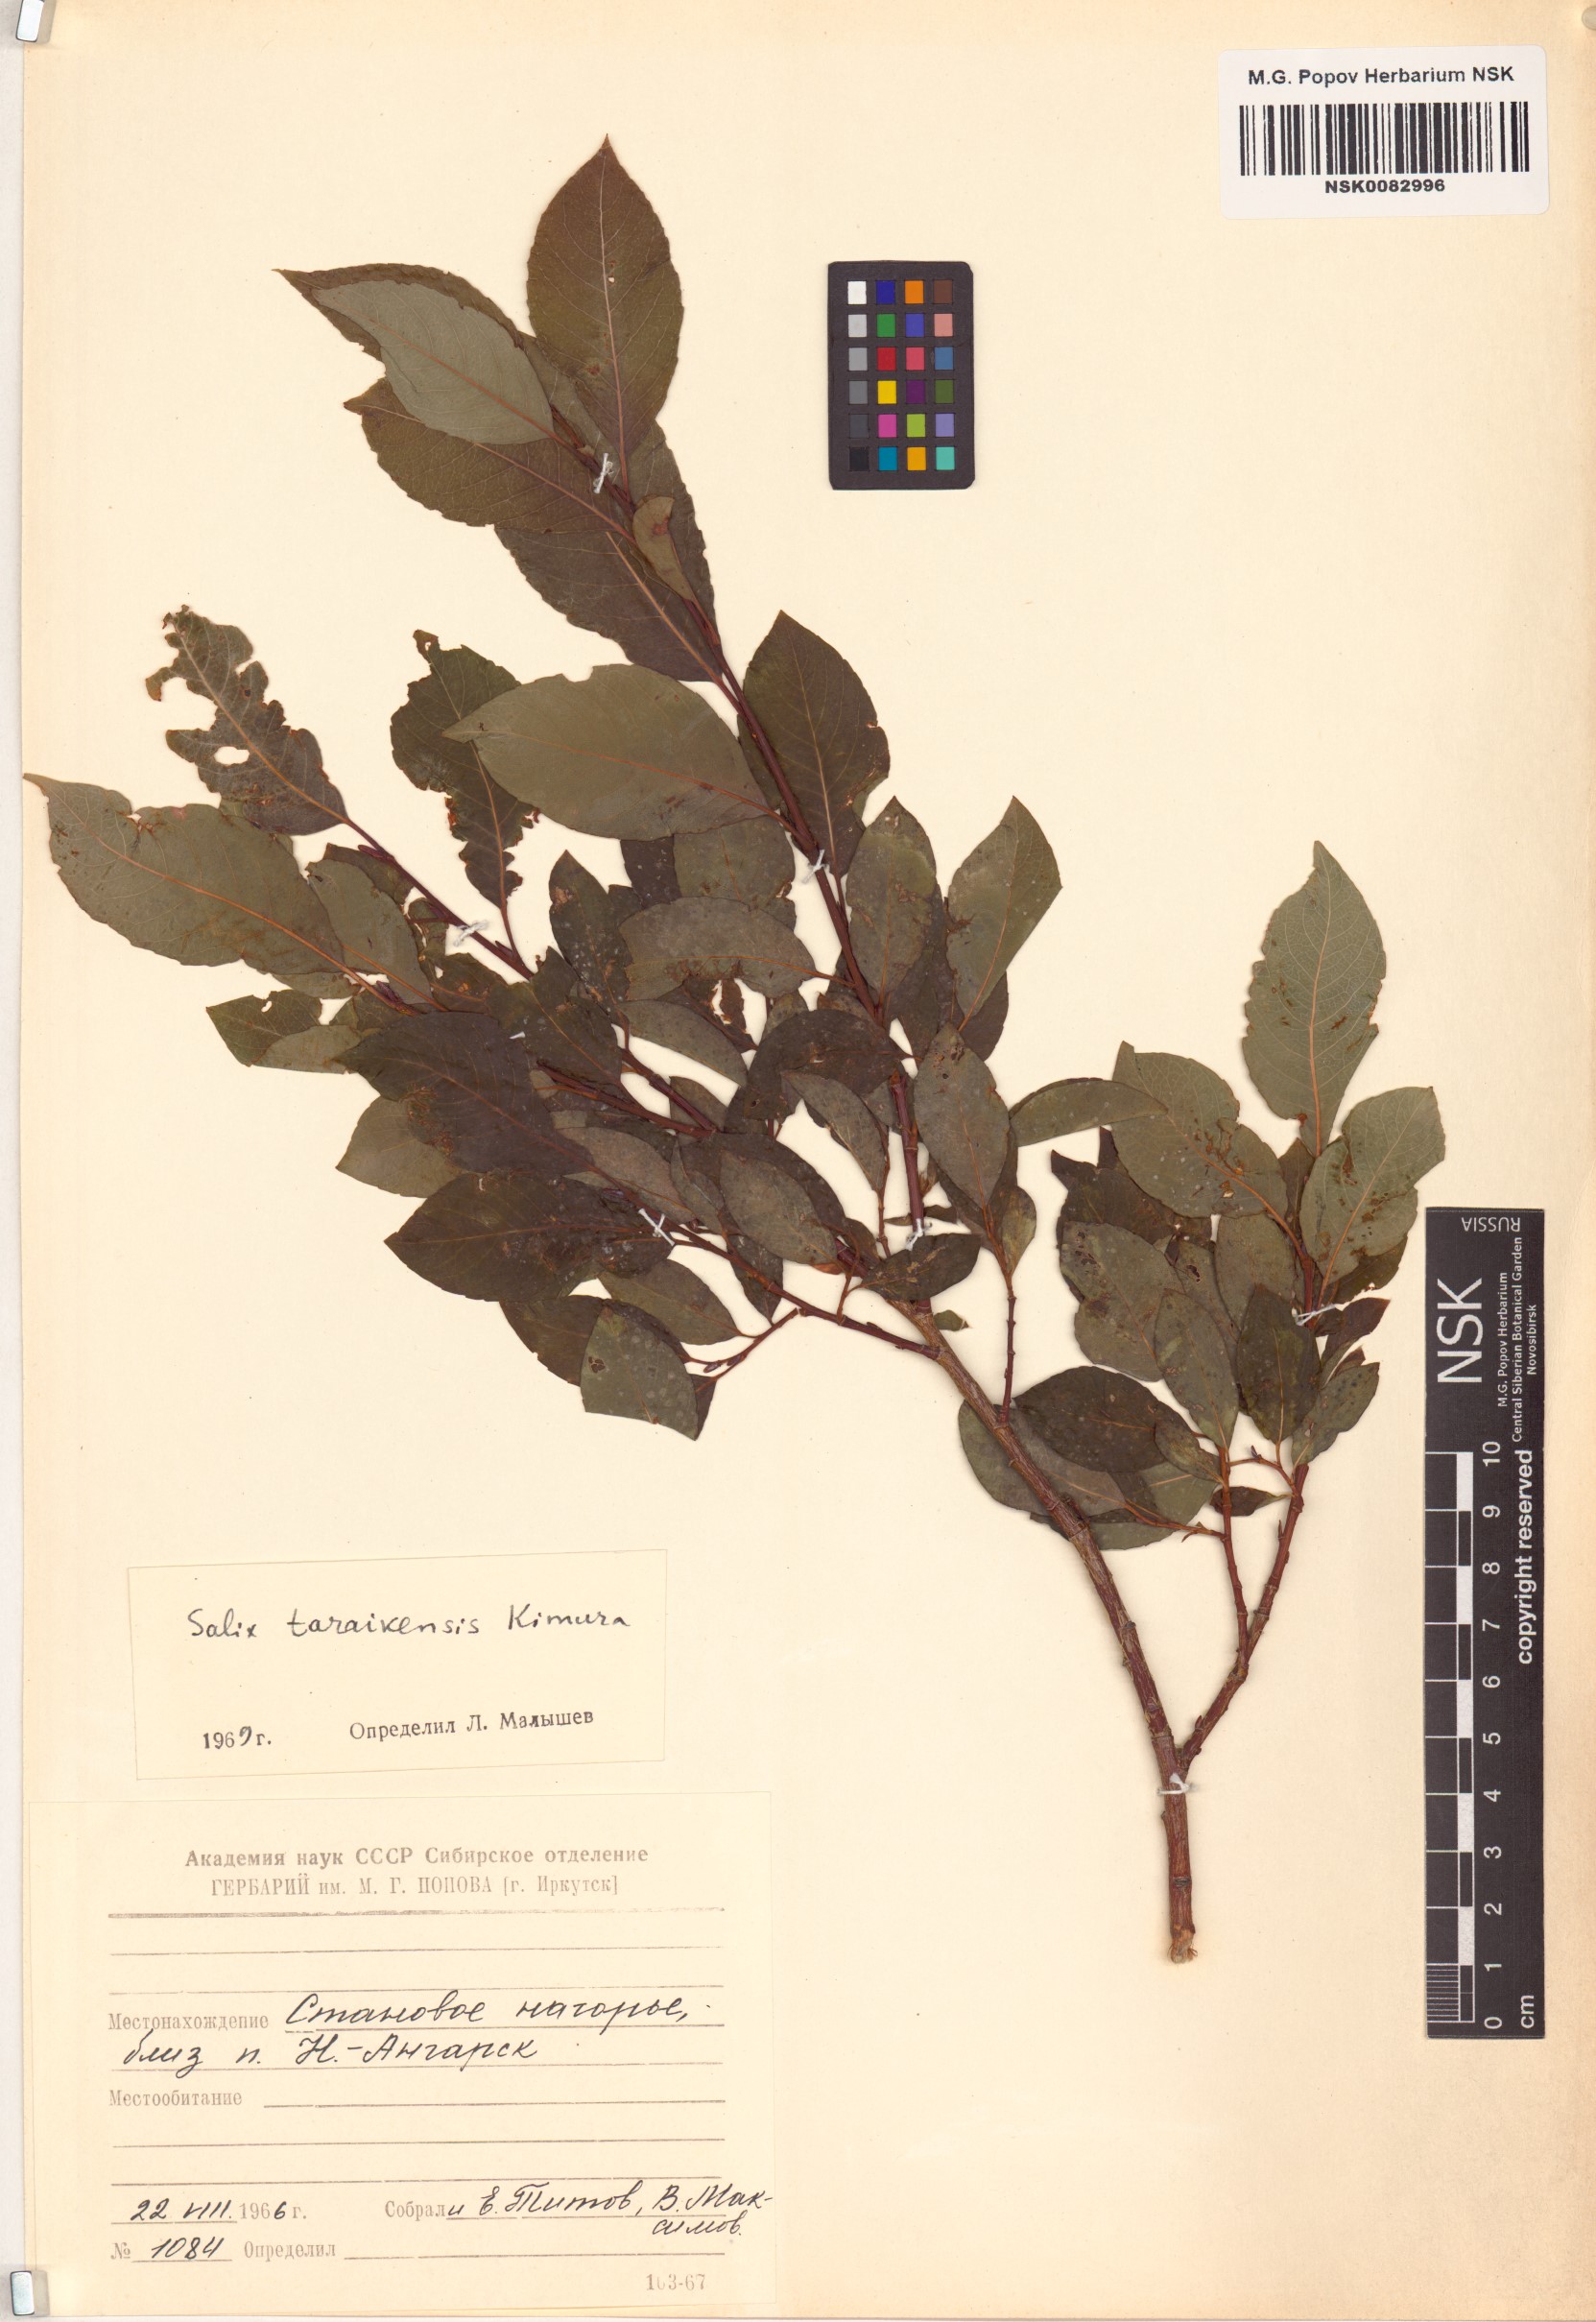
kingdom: Plantae
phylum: Tracheophyta
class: Magnoliopsida
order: Malpighiales
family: Salicaceae
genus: Salix
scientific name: Salix taraikensis
